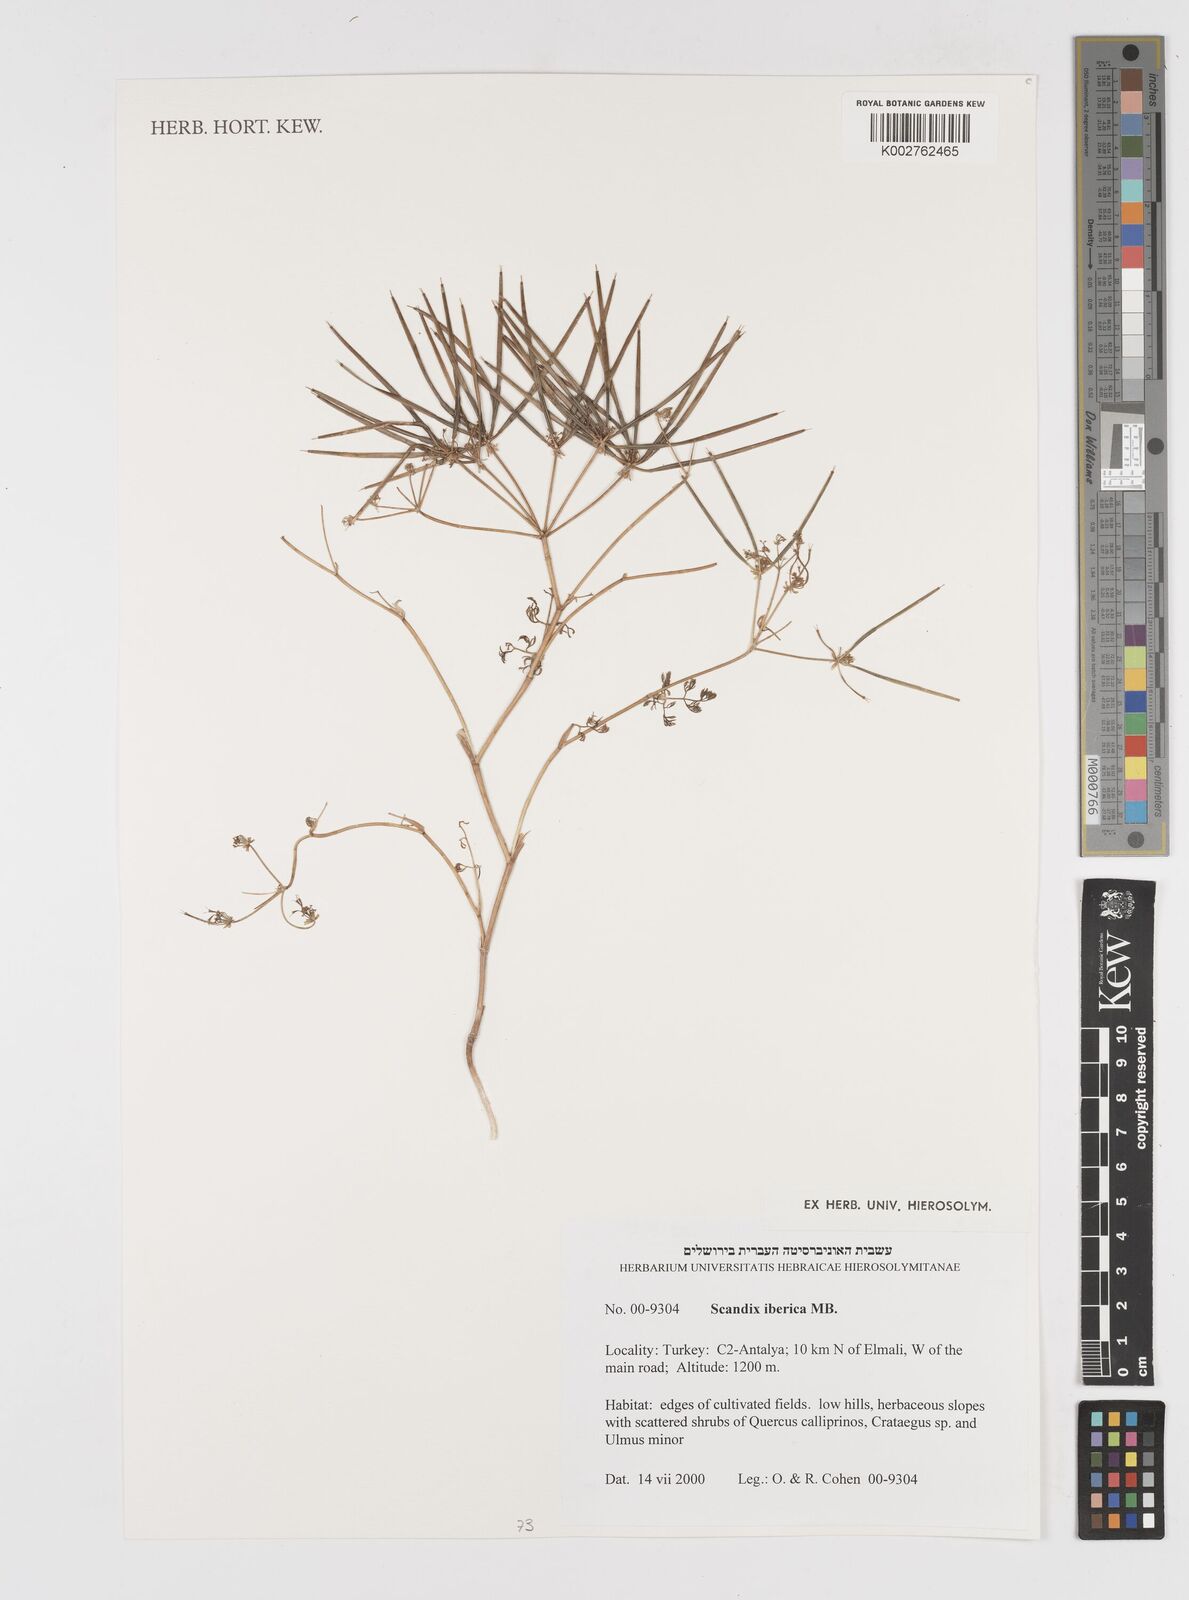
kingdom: Plantae
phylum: Tracheophyta
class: Magnoliopsida
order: Apiales
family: Apiaceae
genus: Scandix
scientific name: Scandix iberica
